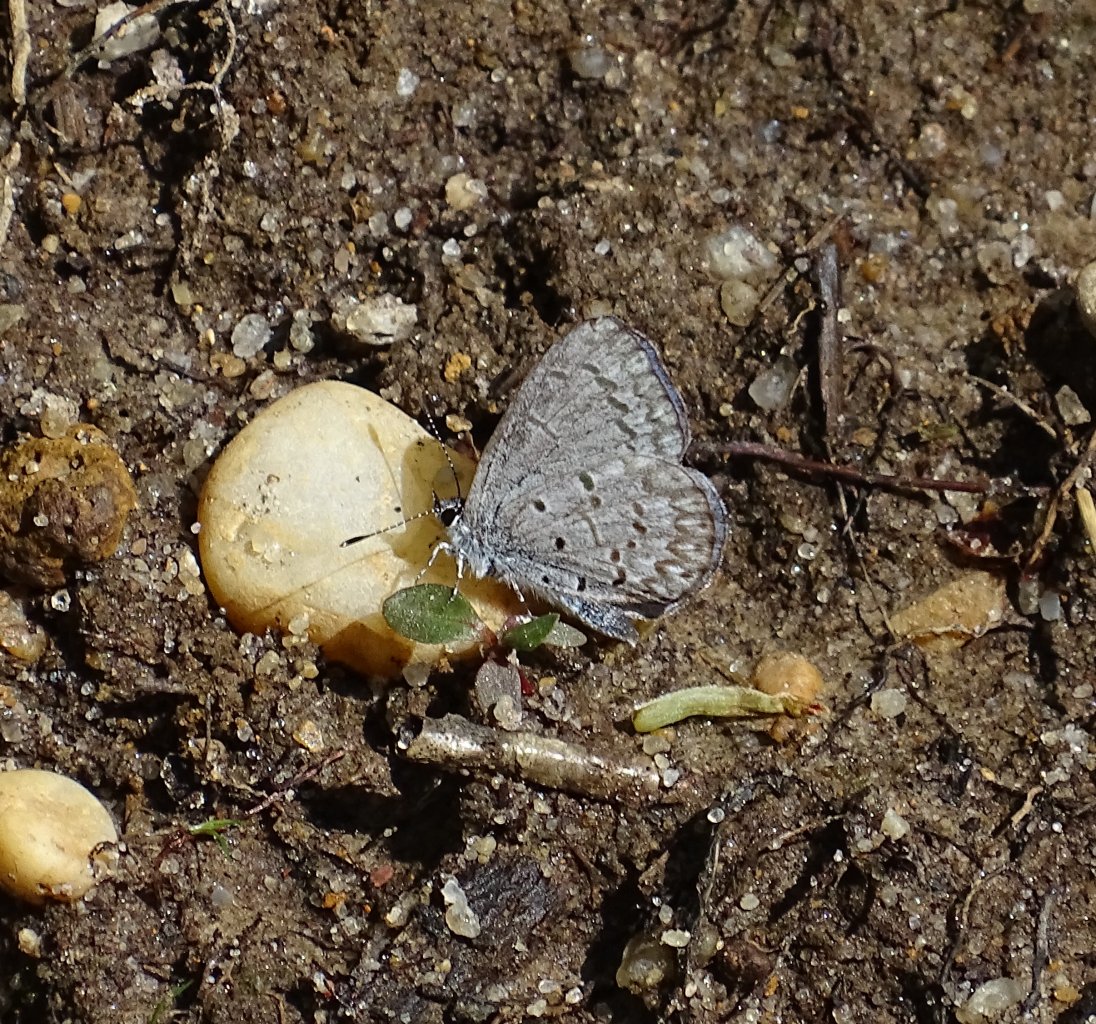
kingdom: Animalia
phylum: Arthropoda
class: Insecta
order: Lepidoptera
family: Lycaenidae
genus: Celastrina
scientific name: Celastrina ladon
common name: Spring Azure
